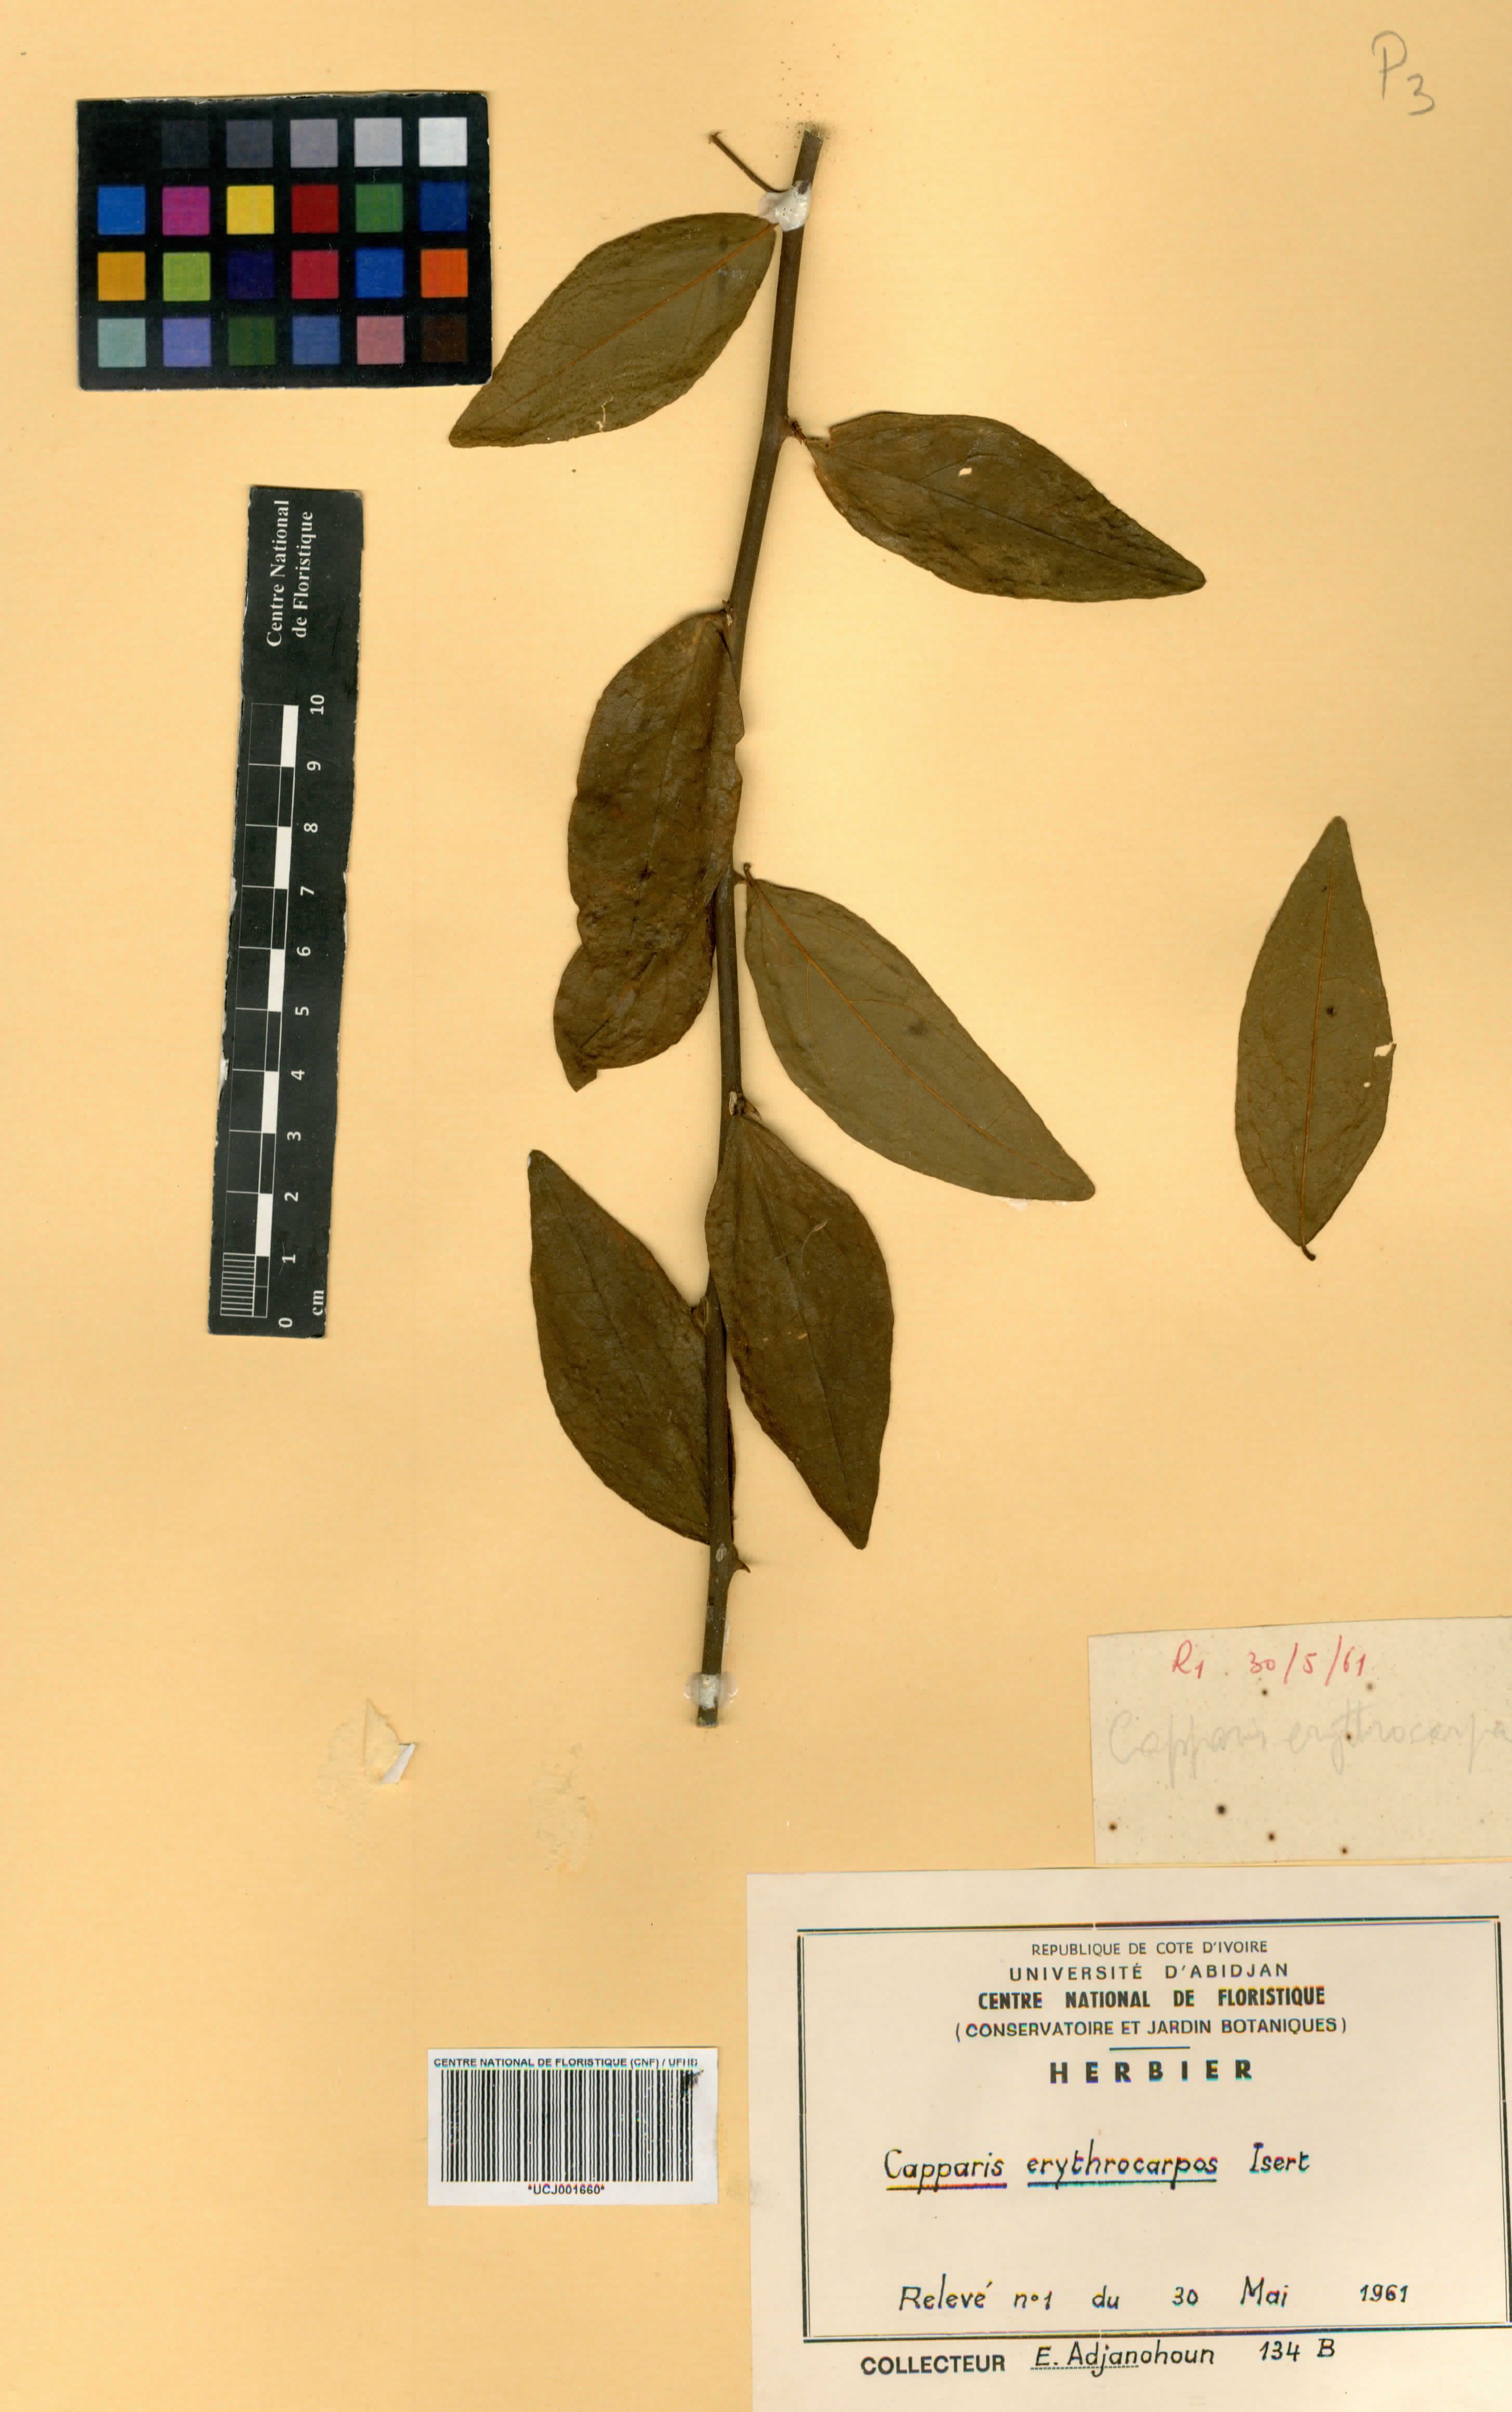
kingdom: Plantae
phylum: Tracheophyta
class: Magnoliopsida
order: Brassicales
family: Capparaceae
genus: Capparis
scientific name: Capparis erythrocarpos
